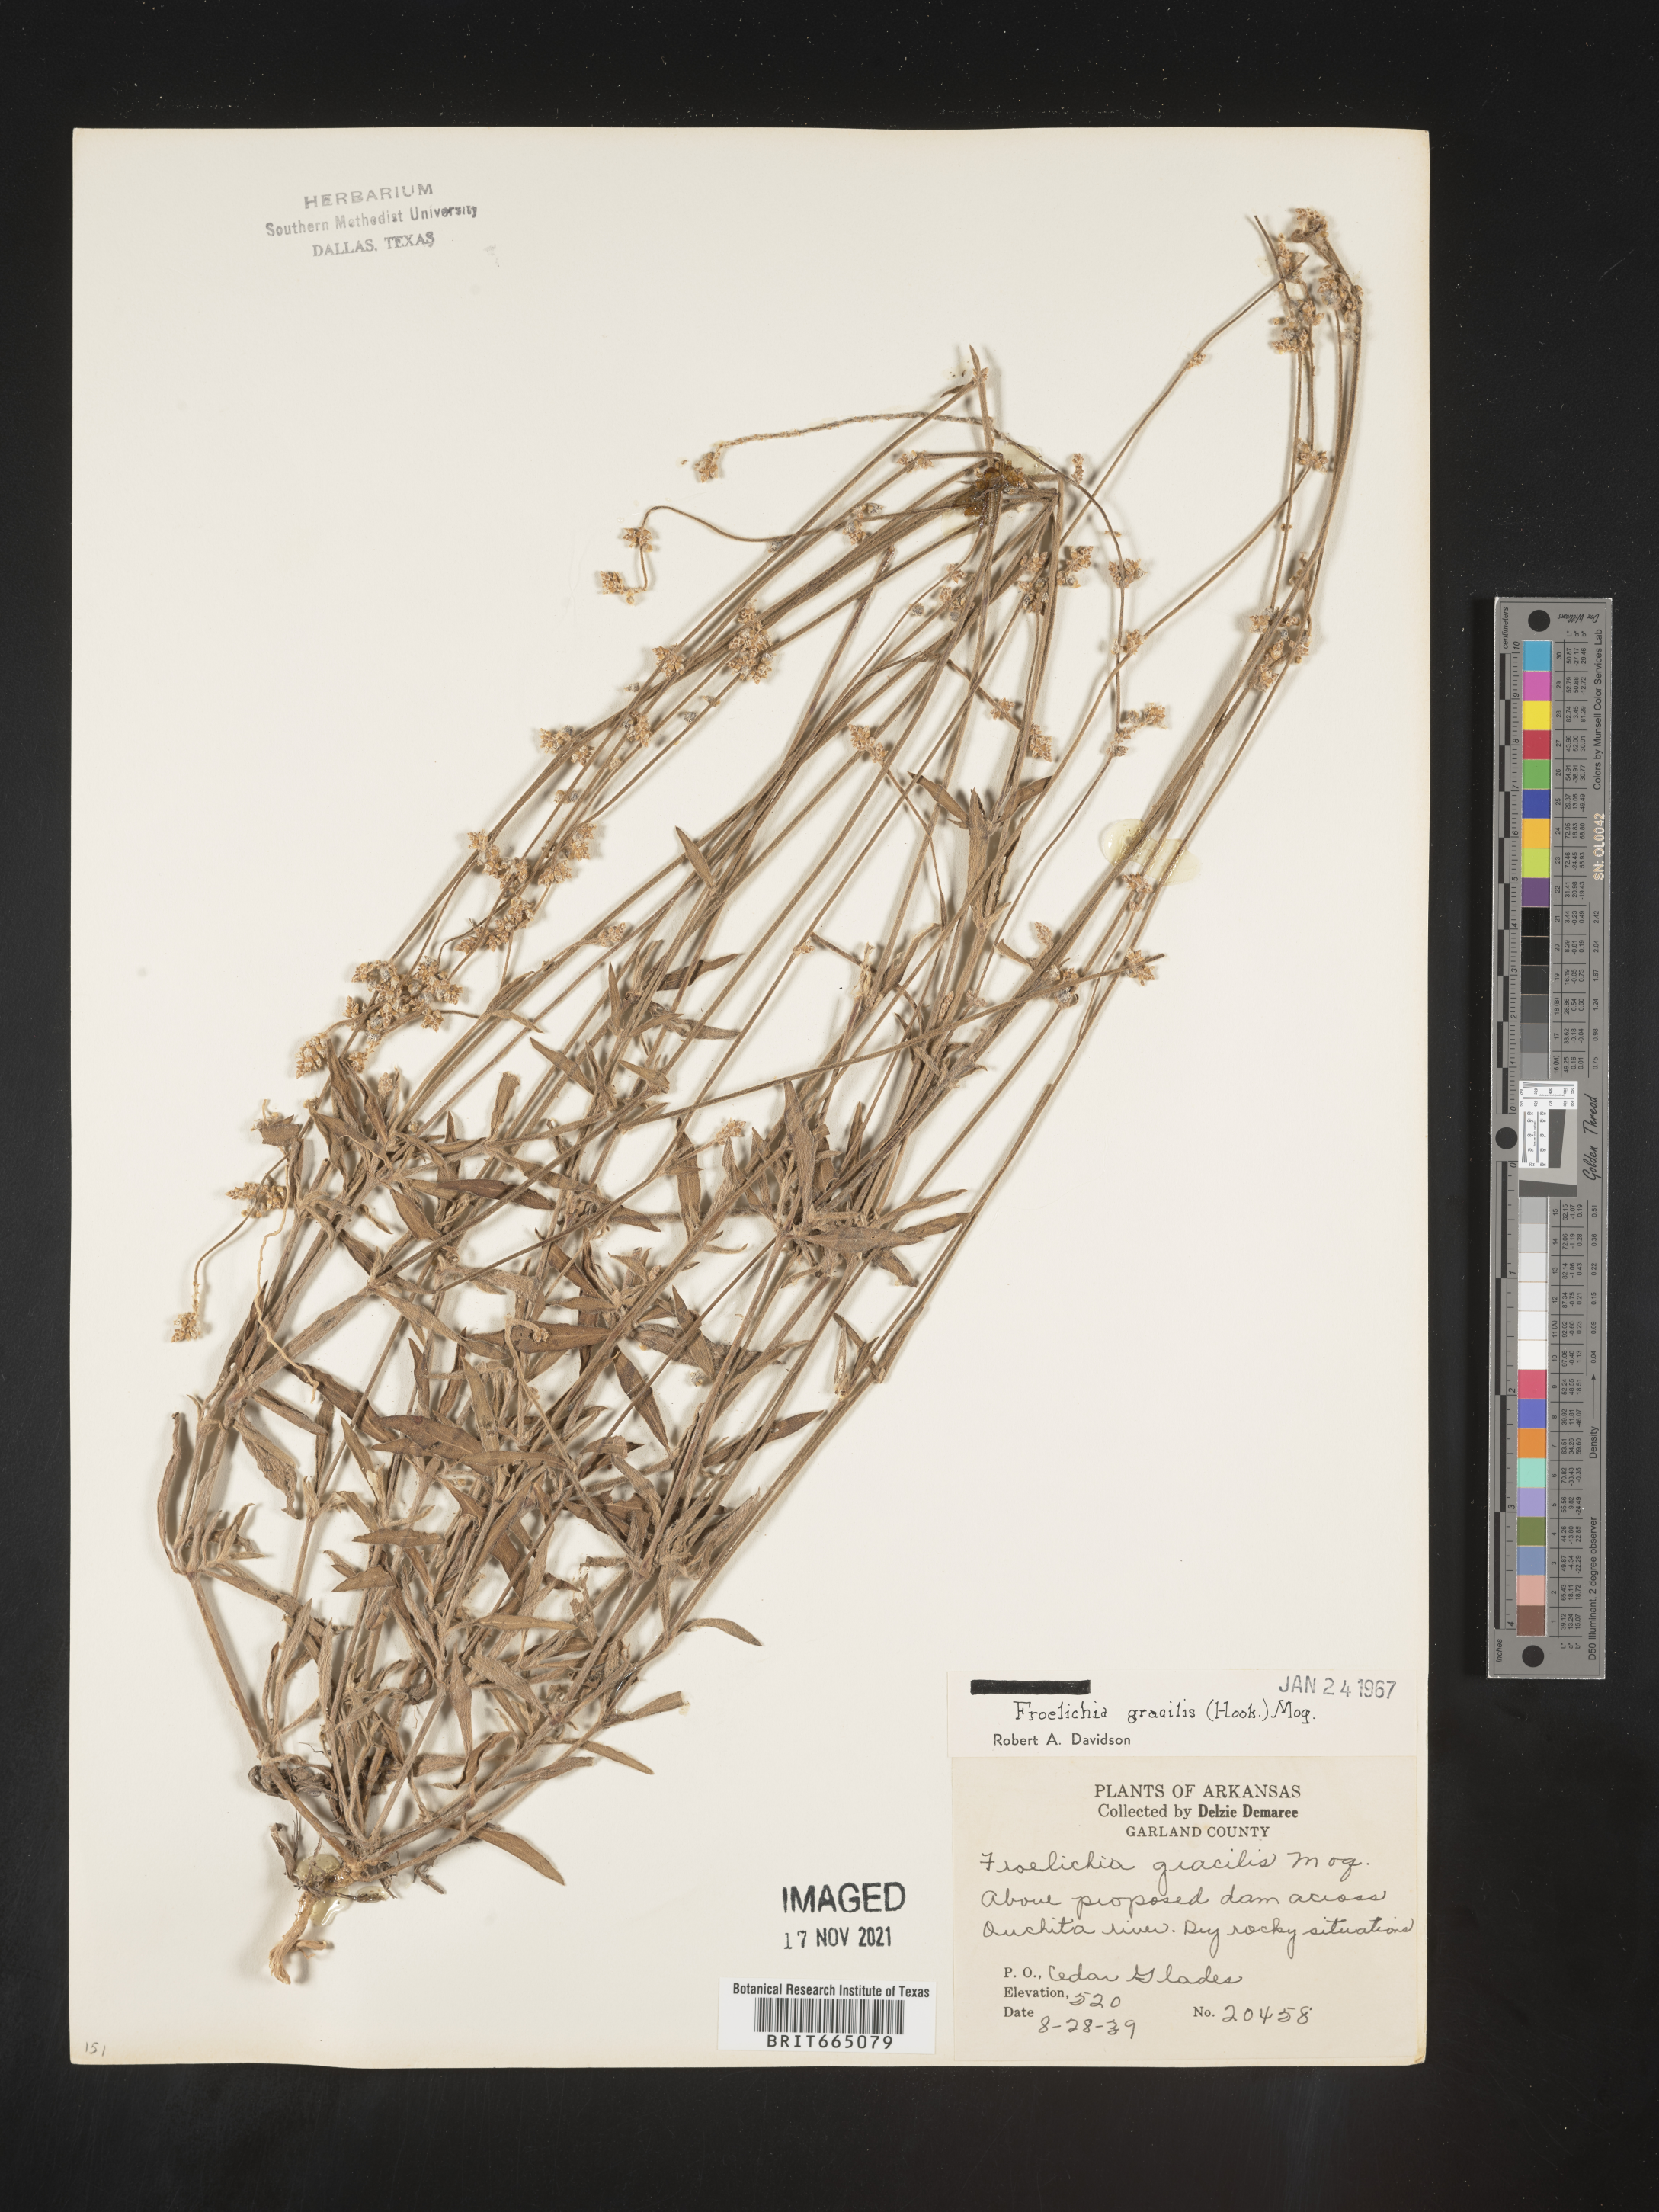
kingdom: Plantae
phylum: Tracheophyta
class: Magnoliopsida
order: Caryophyllales
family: Amaranthaceae
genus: Froelichia
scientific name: Froelichia gracilis
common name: Slender cottonweed
